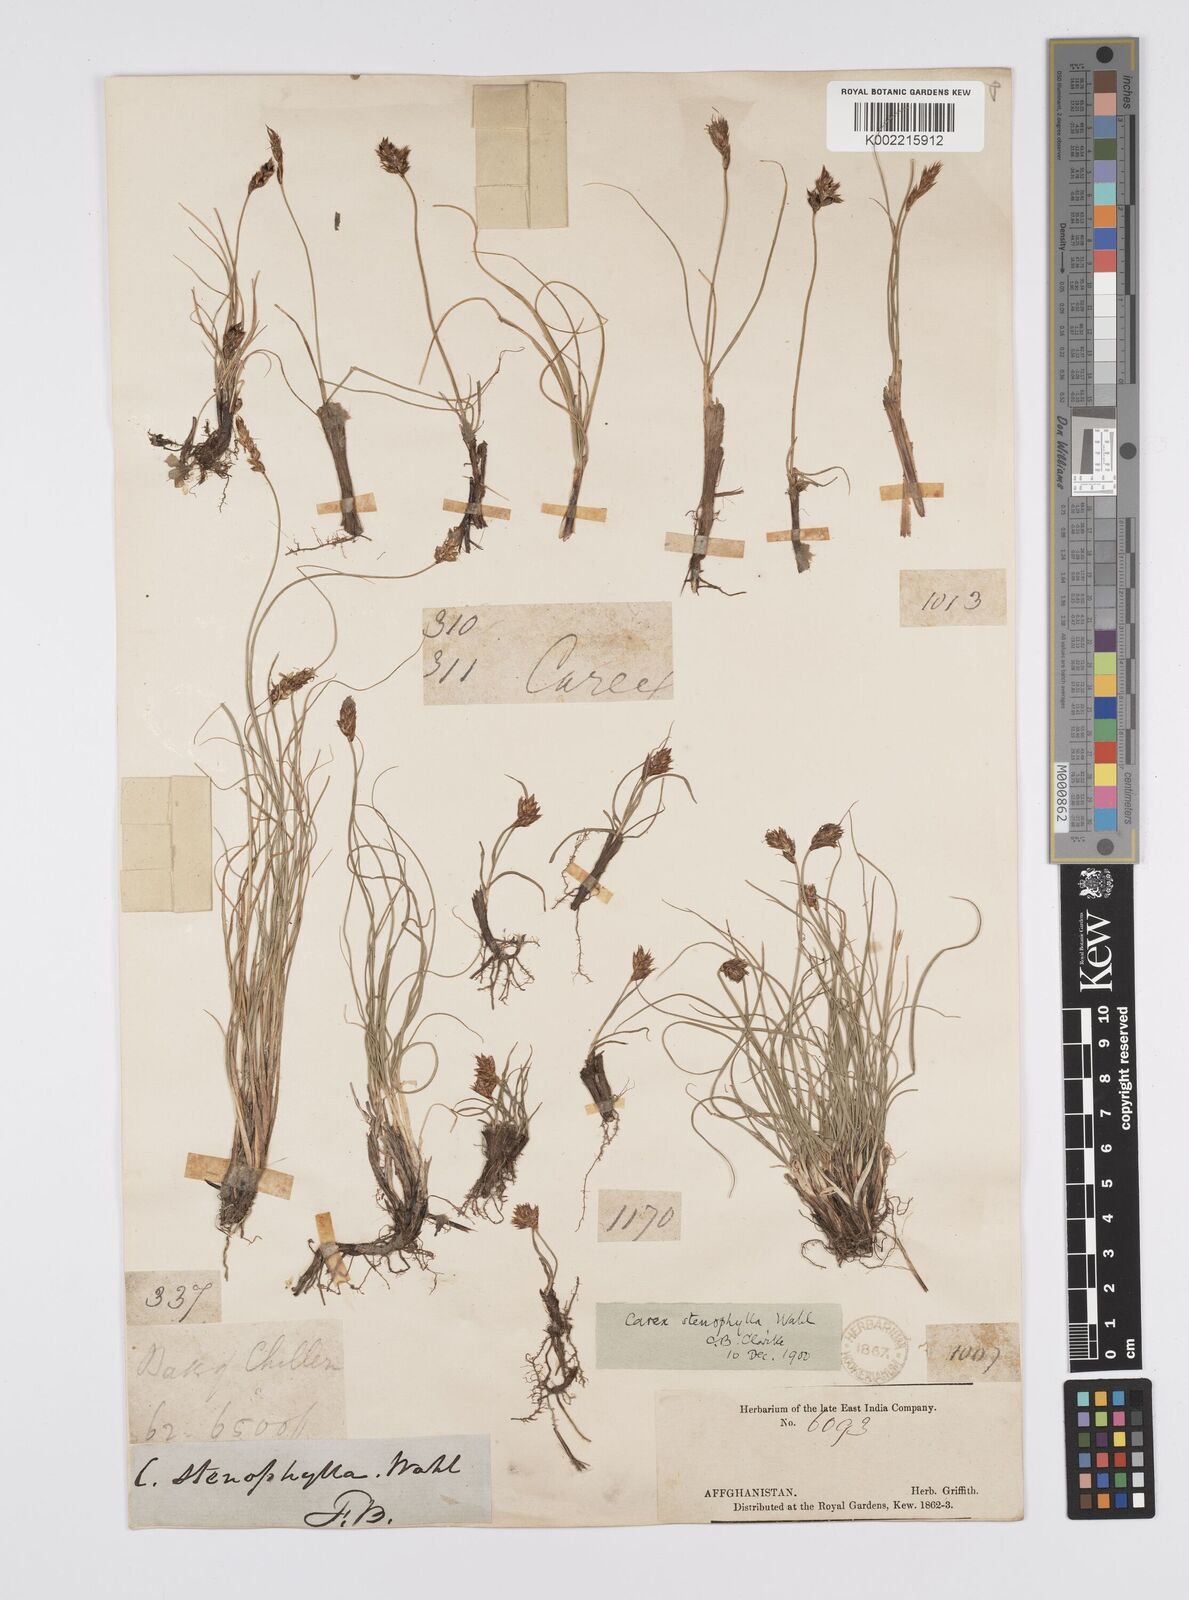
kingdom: Plantae
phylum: Tracheophyta
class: Liliopsida
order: Poales
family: Cyperaceae
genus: Carex
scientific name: Carex
